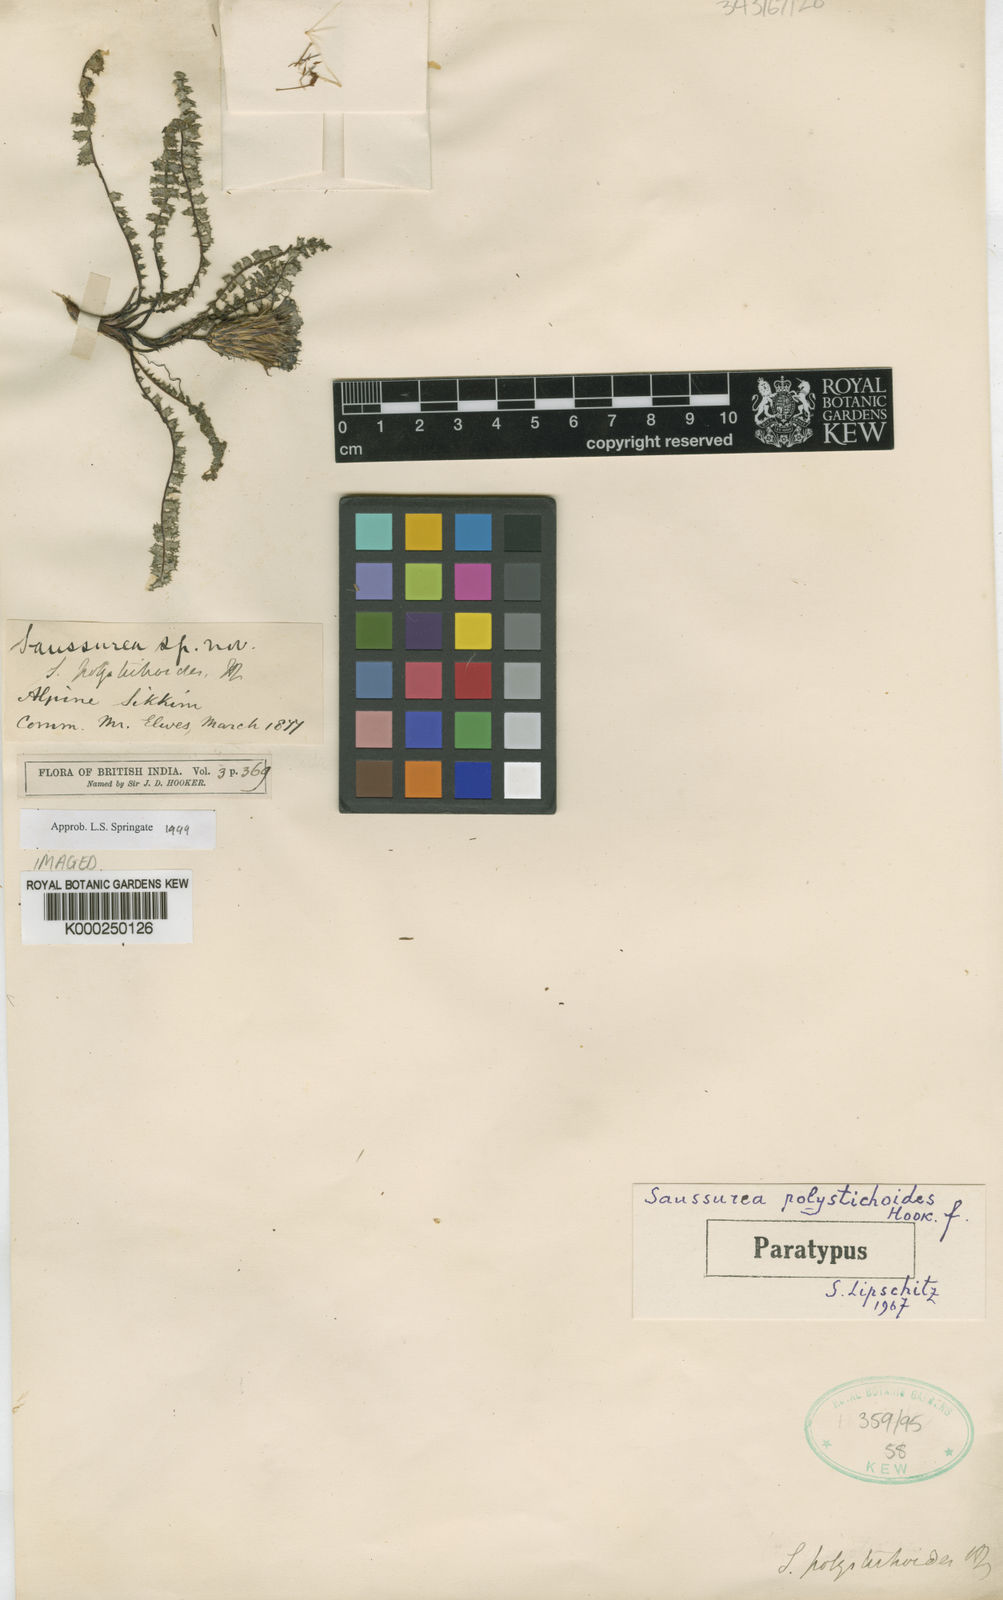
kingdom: Plantae
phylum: Tracheophyta
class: Magnoliopsida
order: Asterales
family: Asteraceae
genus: Saussurea
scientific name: Saussurea polystichoides
